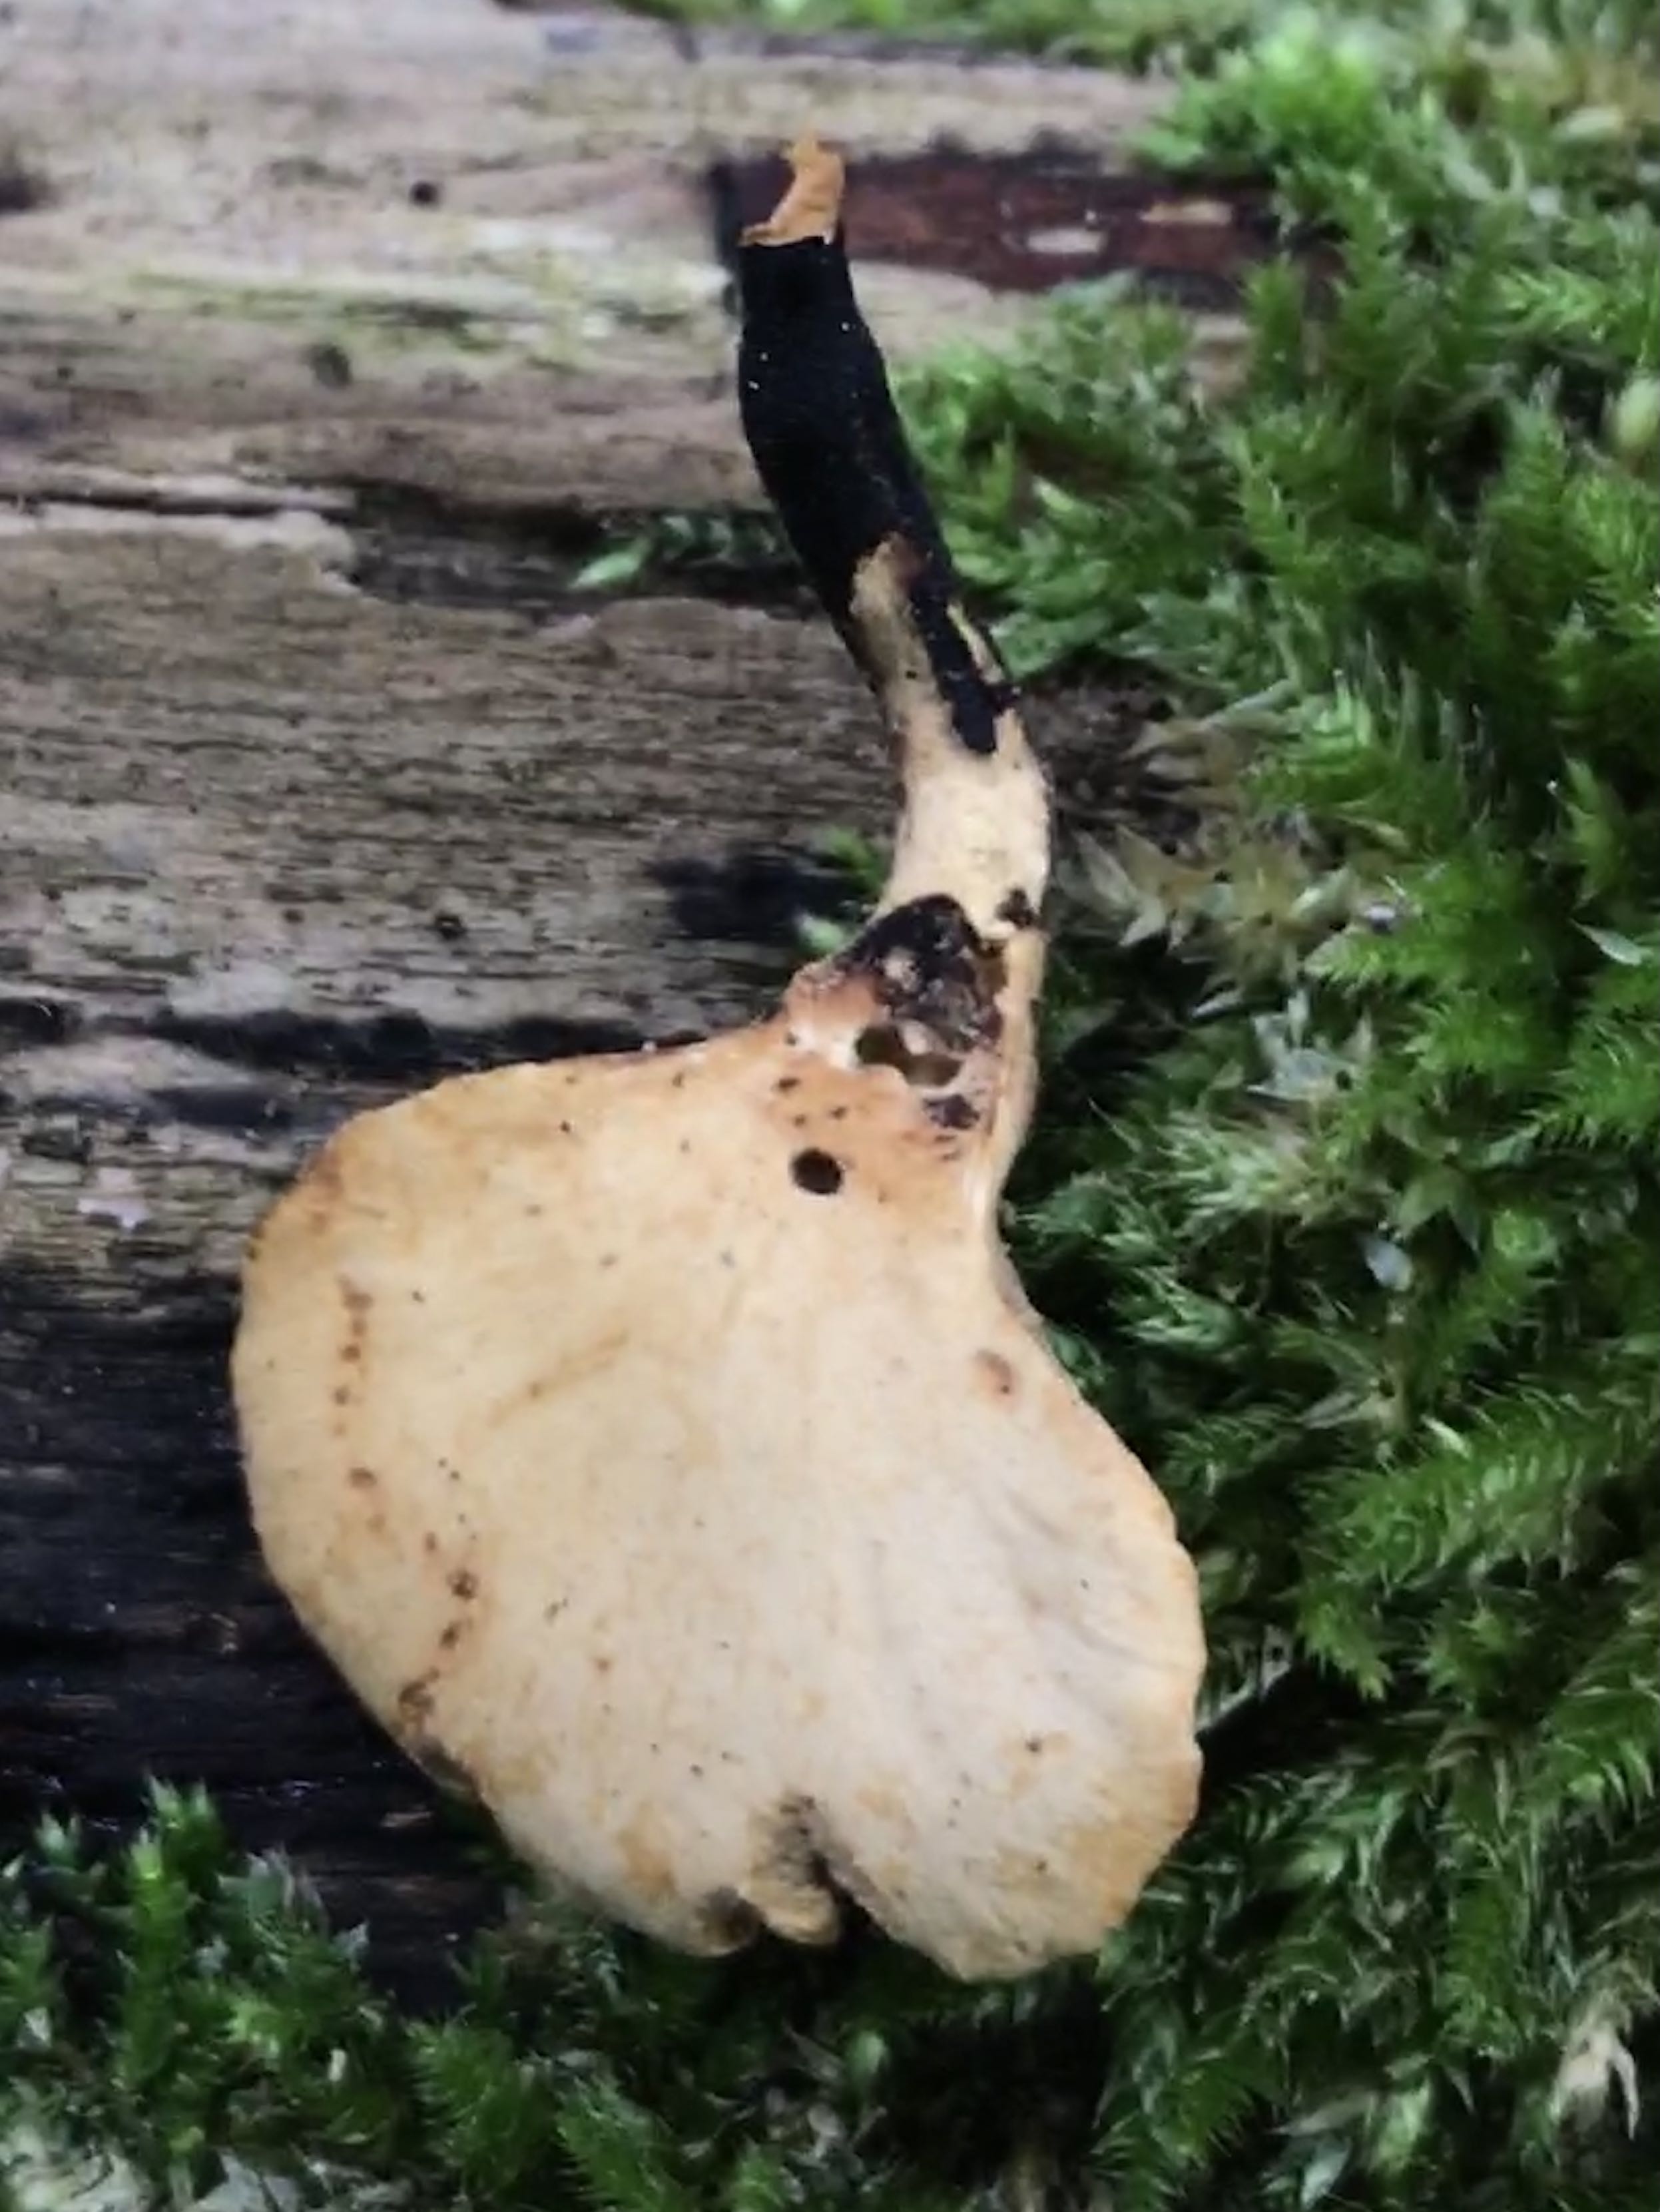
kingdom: Fungi
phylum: Basidiomycota
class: Agaricomycetes
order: Polyporales
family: Polyporaceae
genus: Cerioporus
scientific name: Cerioporus varius
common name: foranderlig stilkporesvamp
